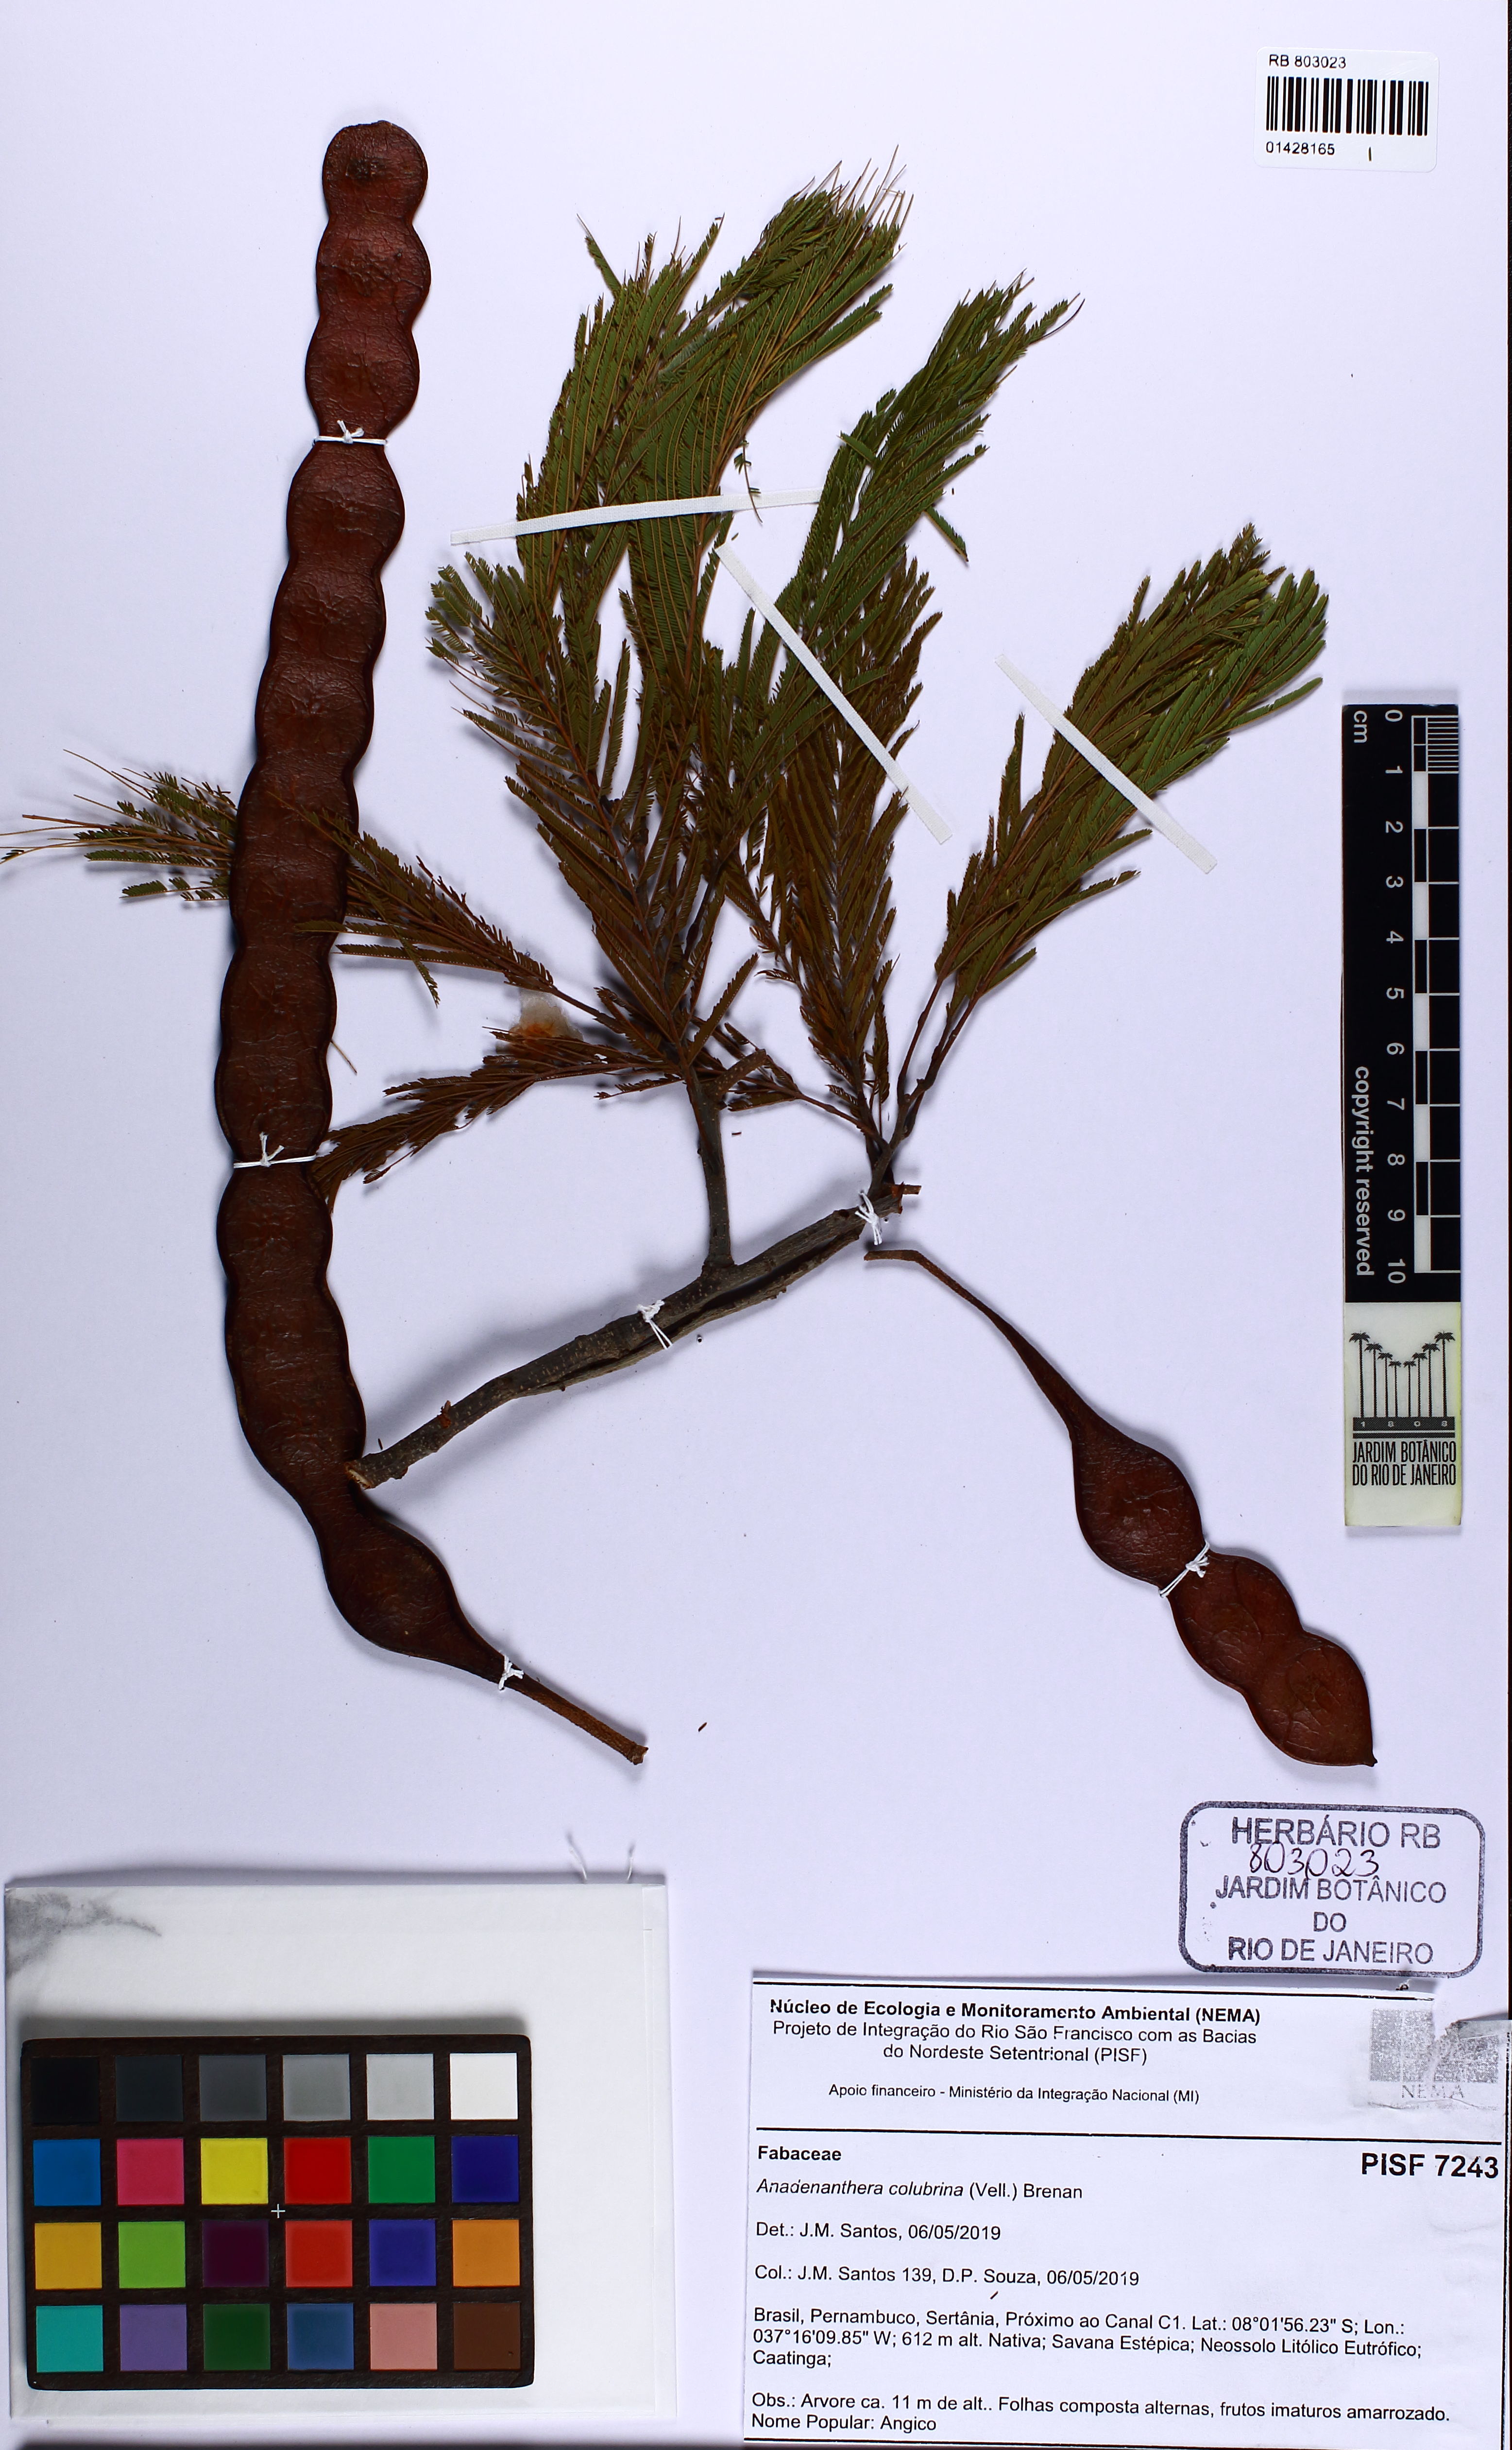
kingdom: Plantae
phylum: Tracheophyta
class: Magnoliopsida
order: Fabales
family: Fabaceae
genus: Anadenanthera
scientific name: Anadenanthera colubrina
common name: Curupay
